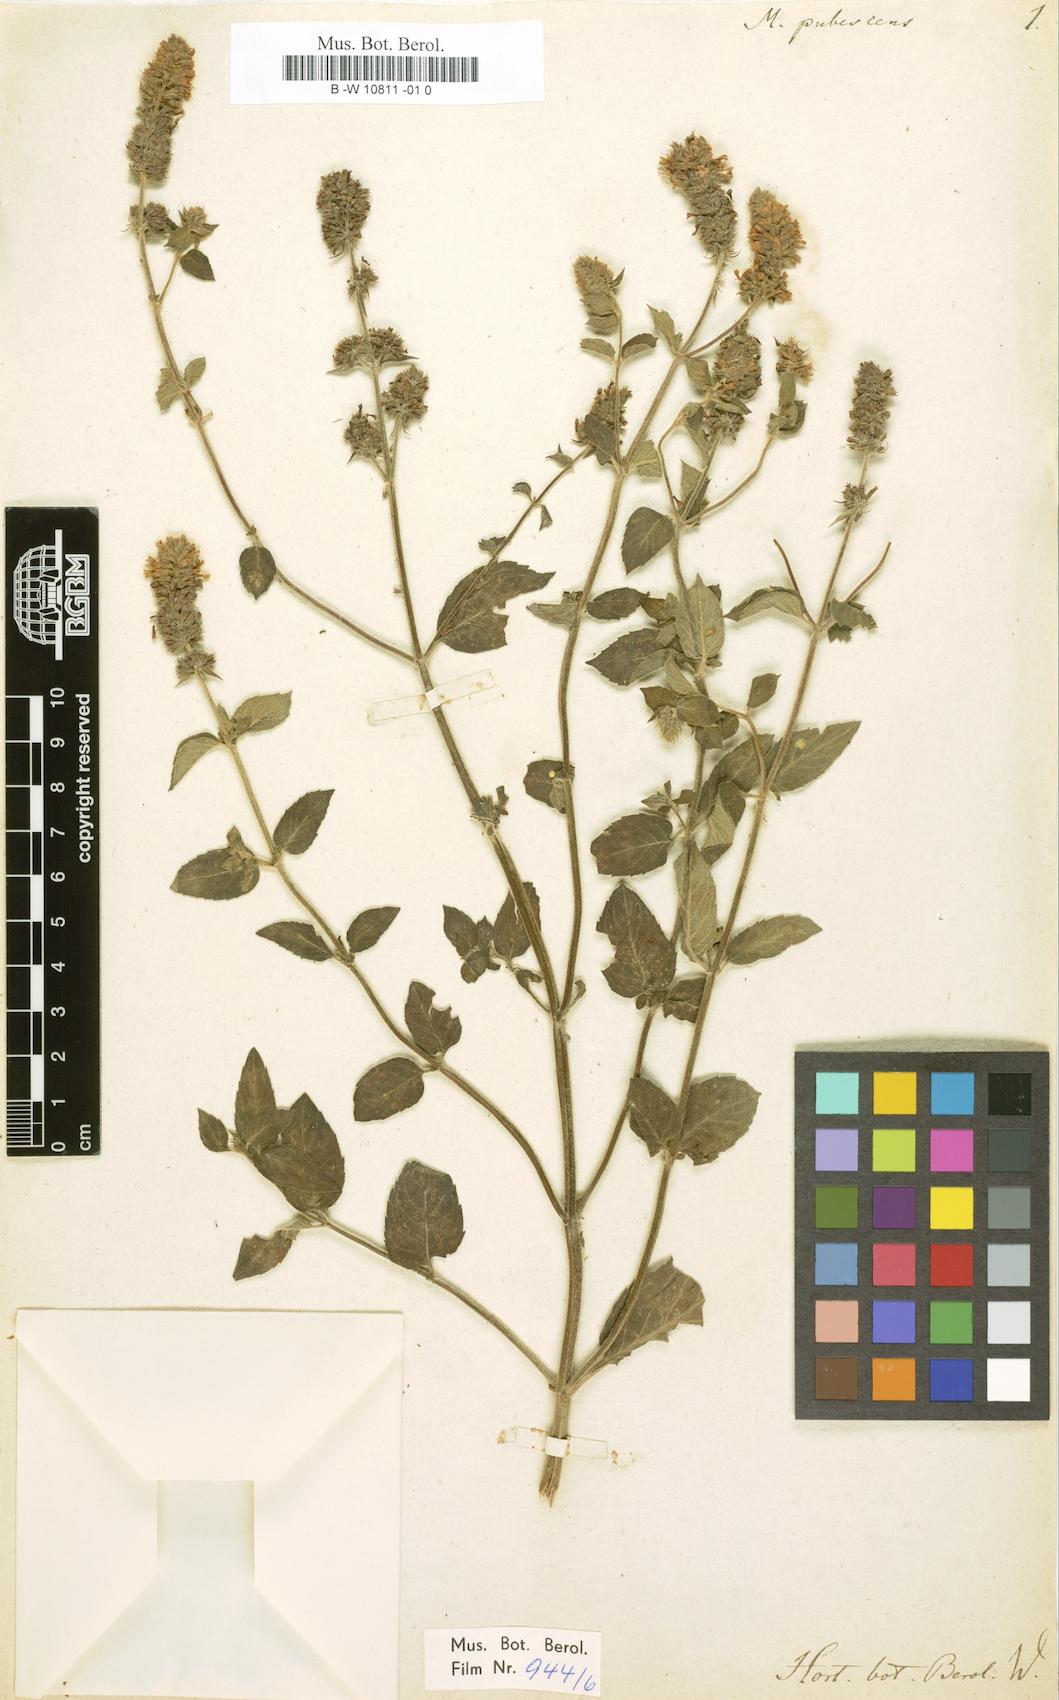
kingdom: Plantae
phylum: Tracheophyta
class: Magnoliopsida
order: Lamiales
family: Lamiaceae
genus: Mentha
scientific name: Mentha dumetorum
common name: Bush-loving mint
